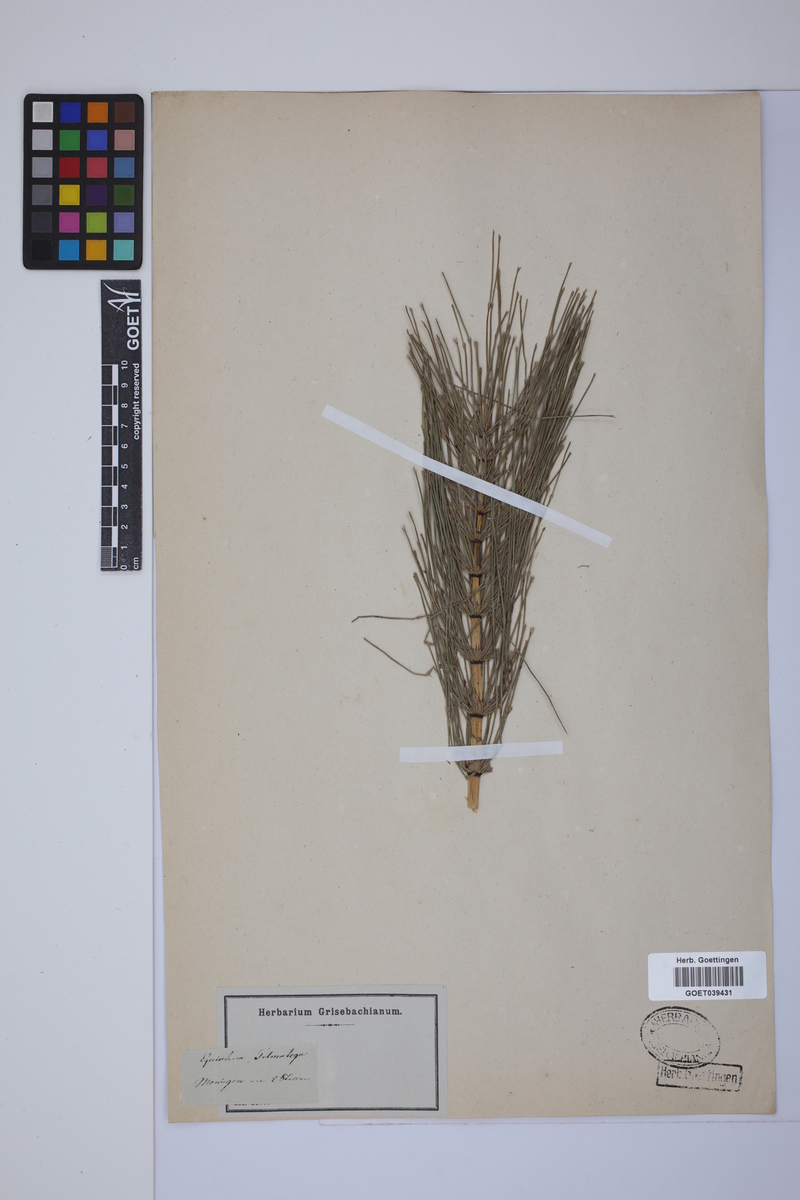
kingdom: Plantae
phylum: Tracheophyta
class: Polypodiopsida
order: Equisetales
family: Equisetaceae
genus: Equisetum
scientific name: Equisetum telmateia
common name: Great horsetail
